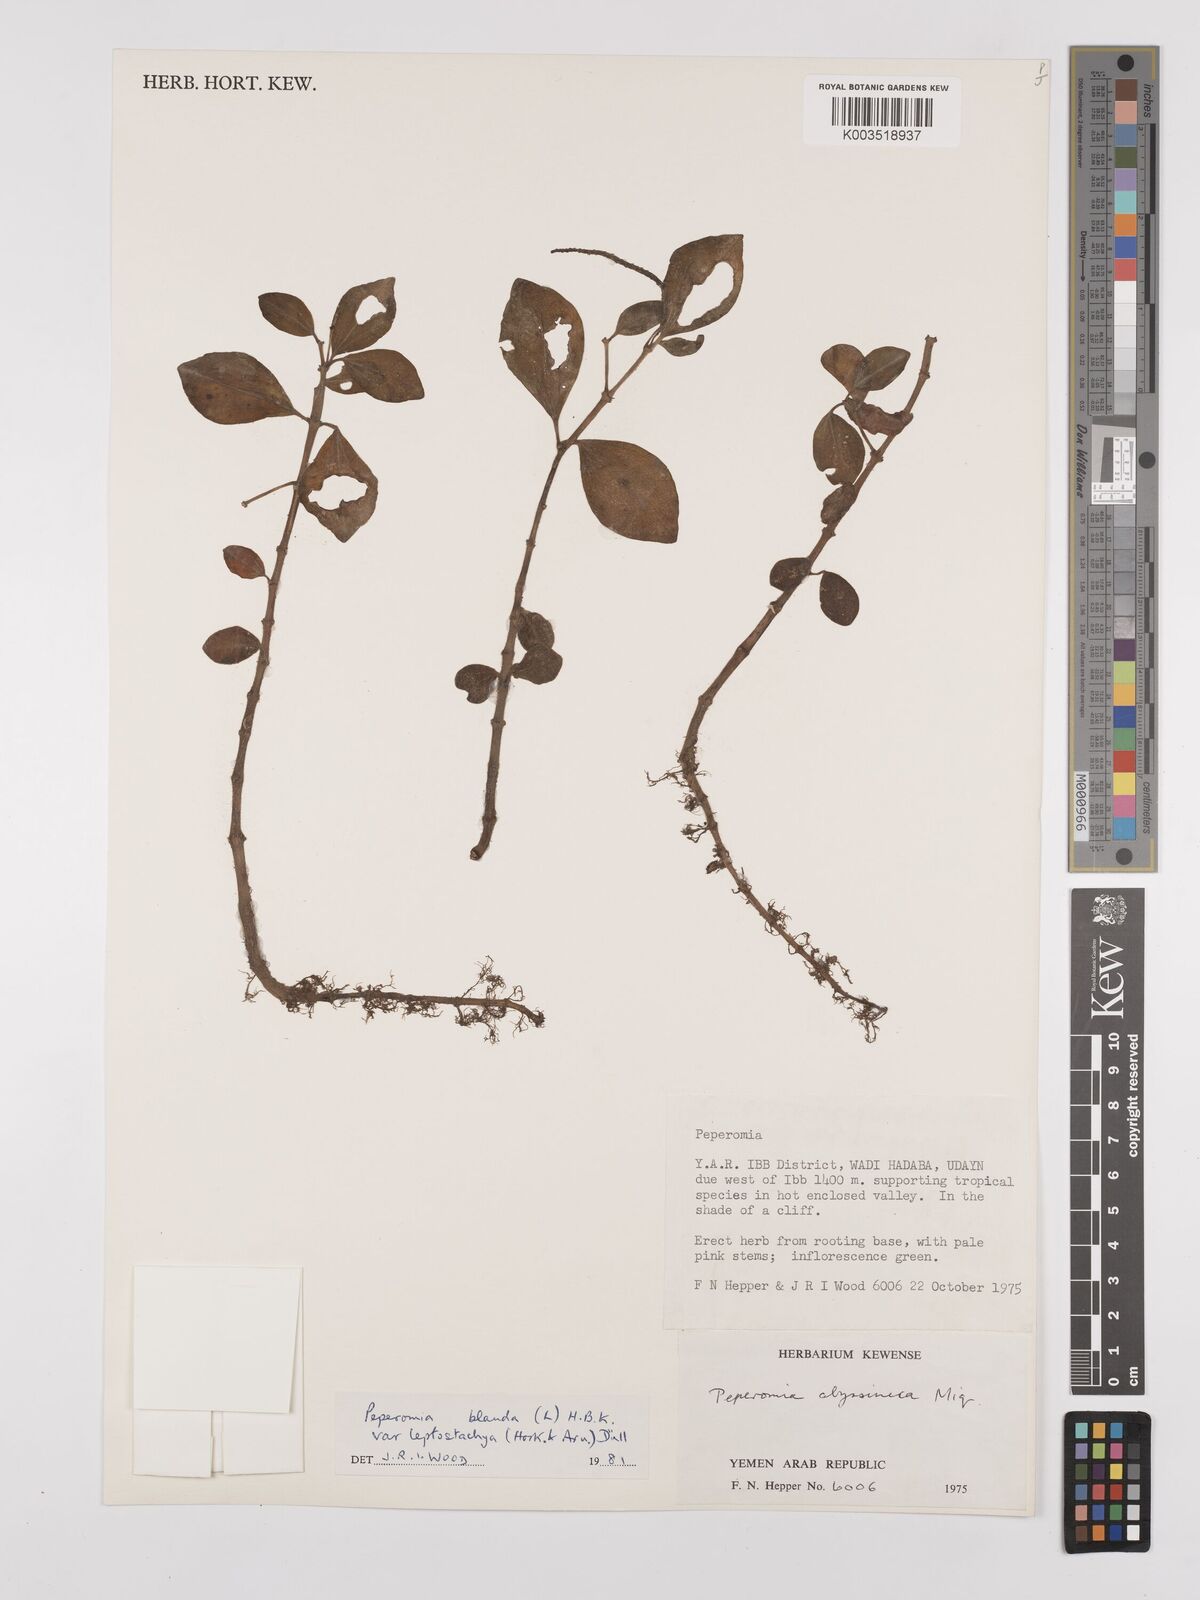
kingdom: Plantae
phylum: Tracheophyta
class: Magnoliopsida
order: Piperales
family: Piperaceae
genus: Peperomia
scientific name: Peperomia leptostachya
